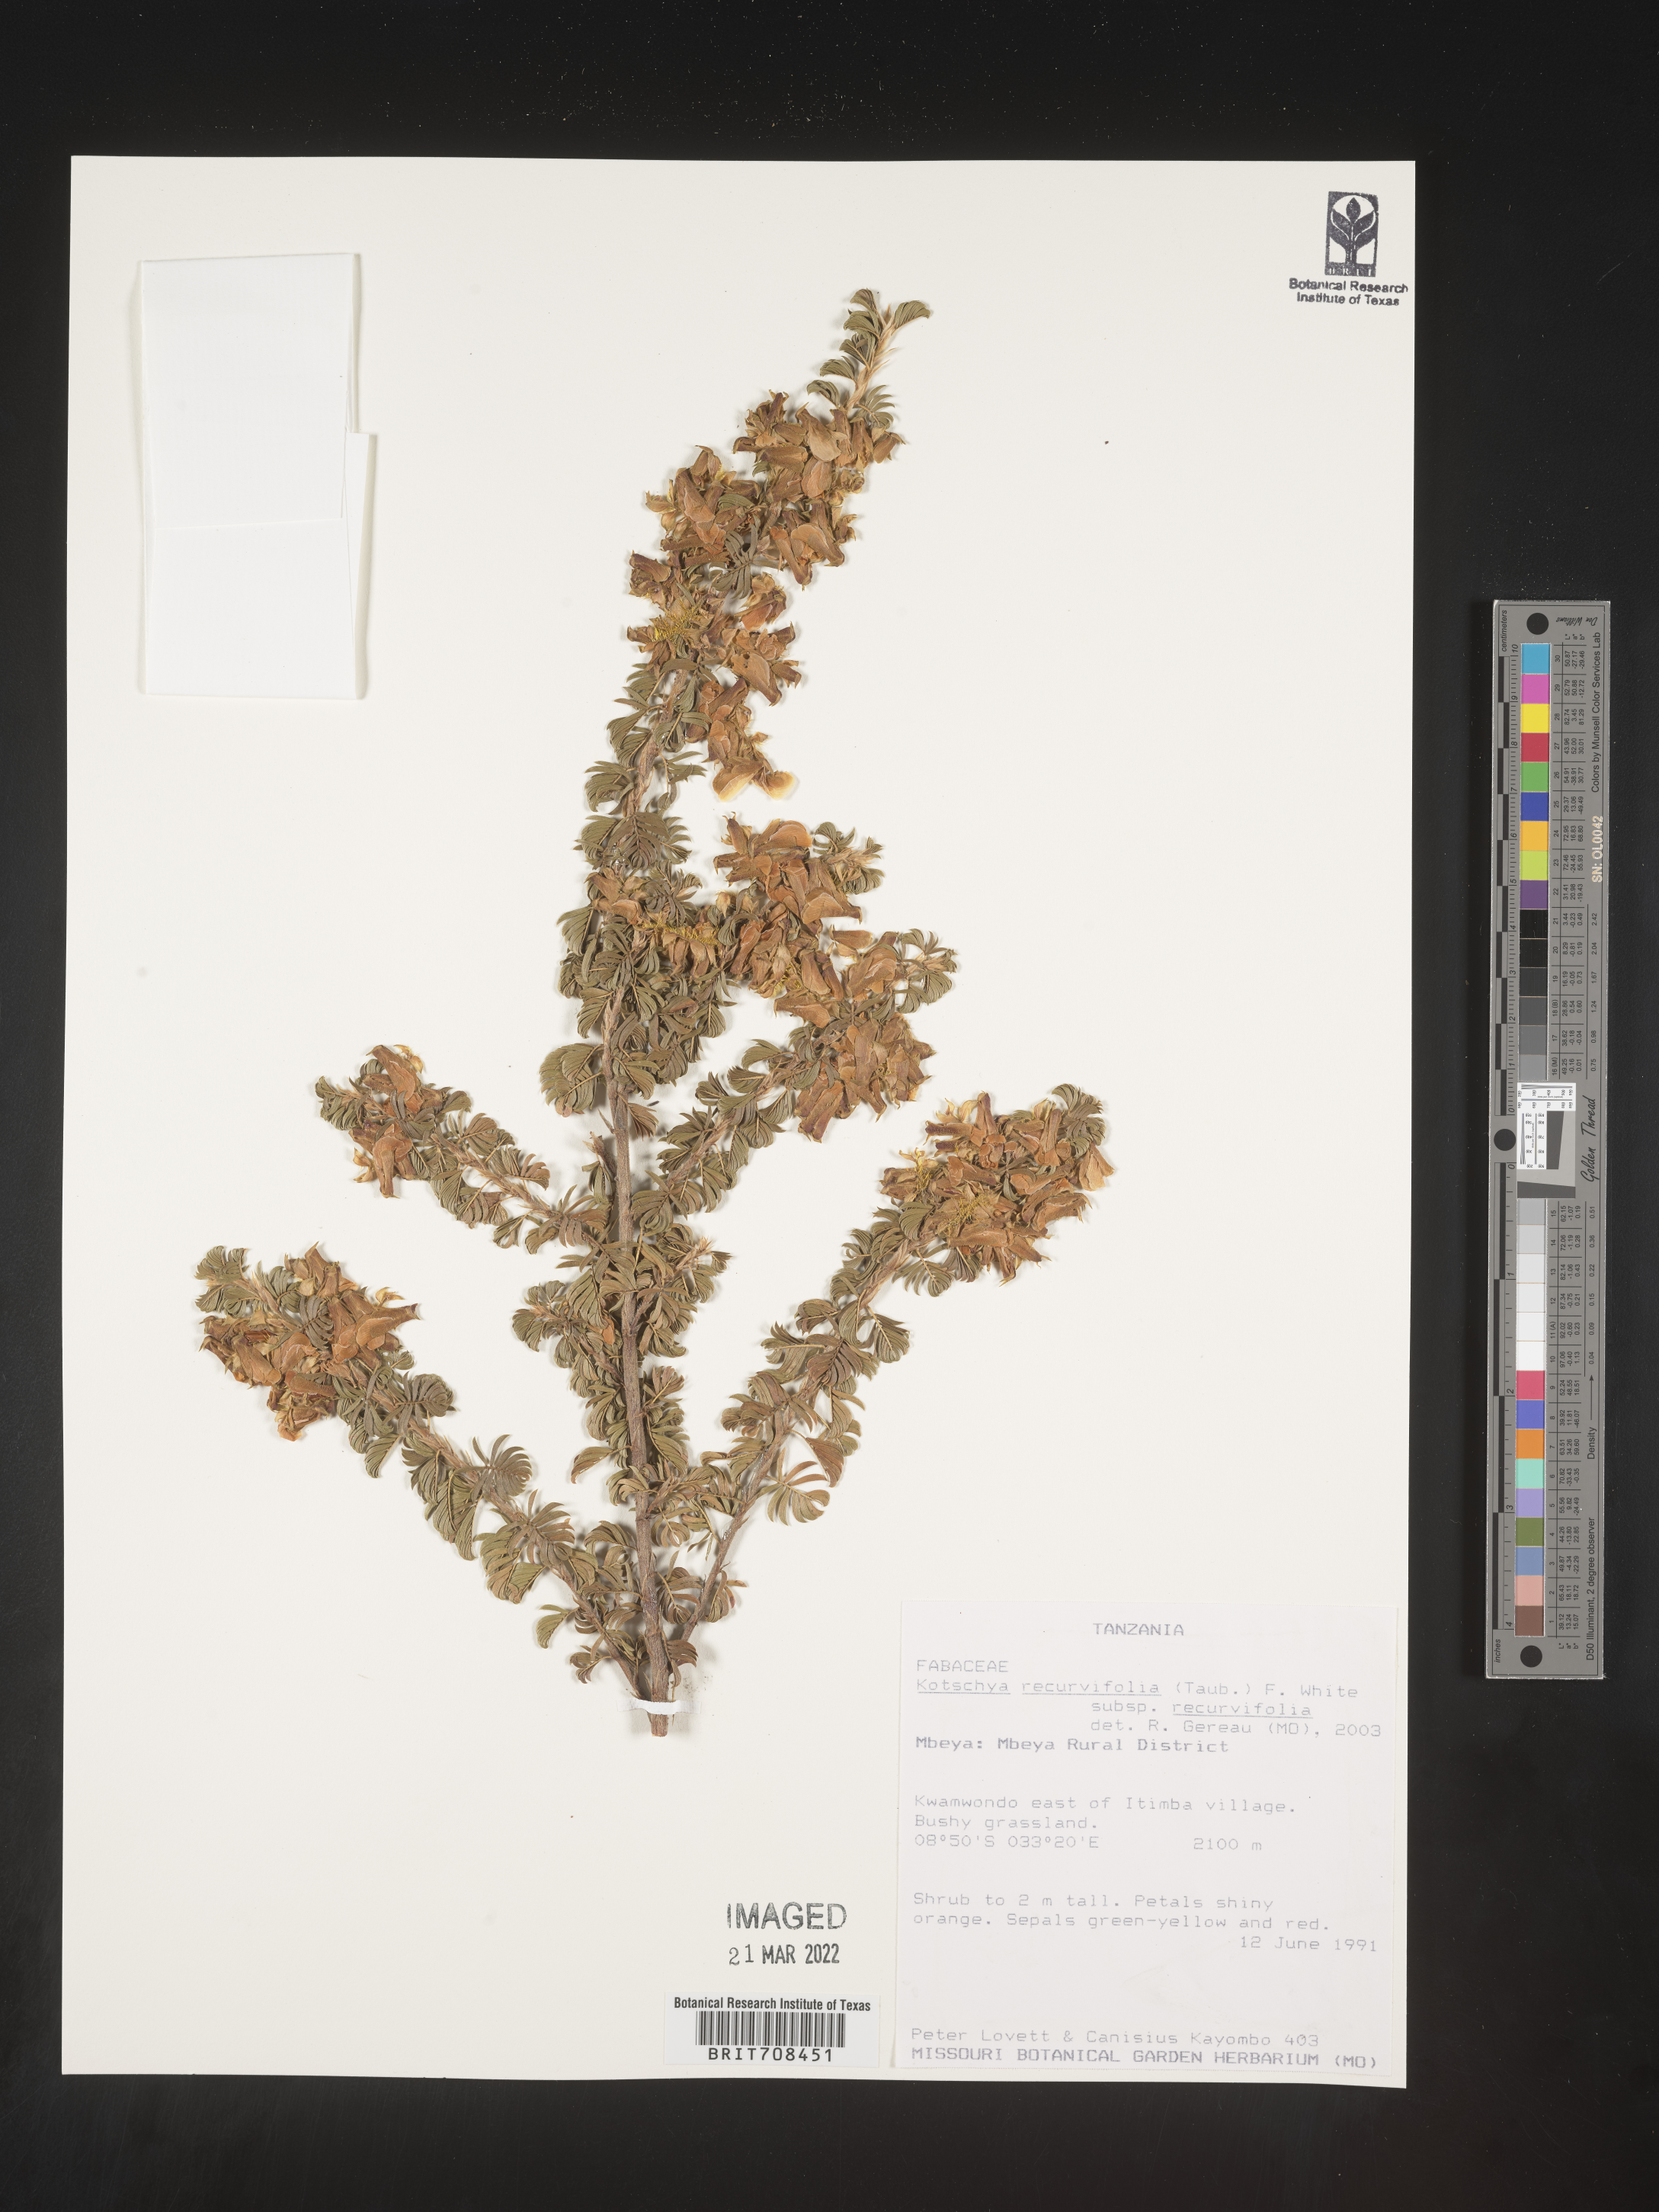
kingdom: Plantae
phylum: Tracheophyta
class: Magnoliopsida
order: Fabales
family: Fabaceae
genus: Kotschya
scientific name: Kotschya
